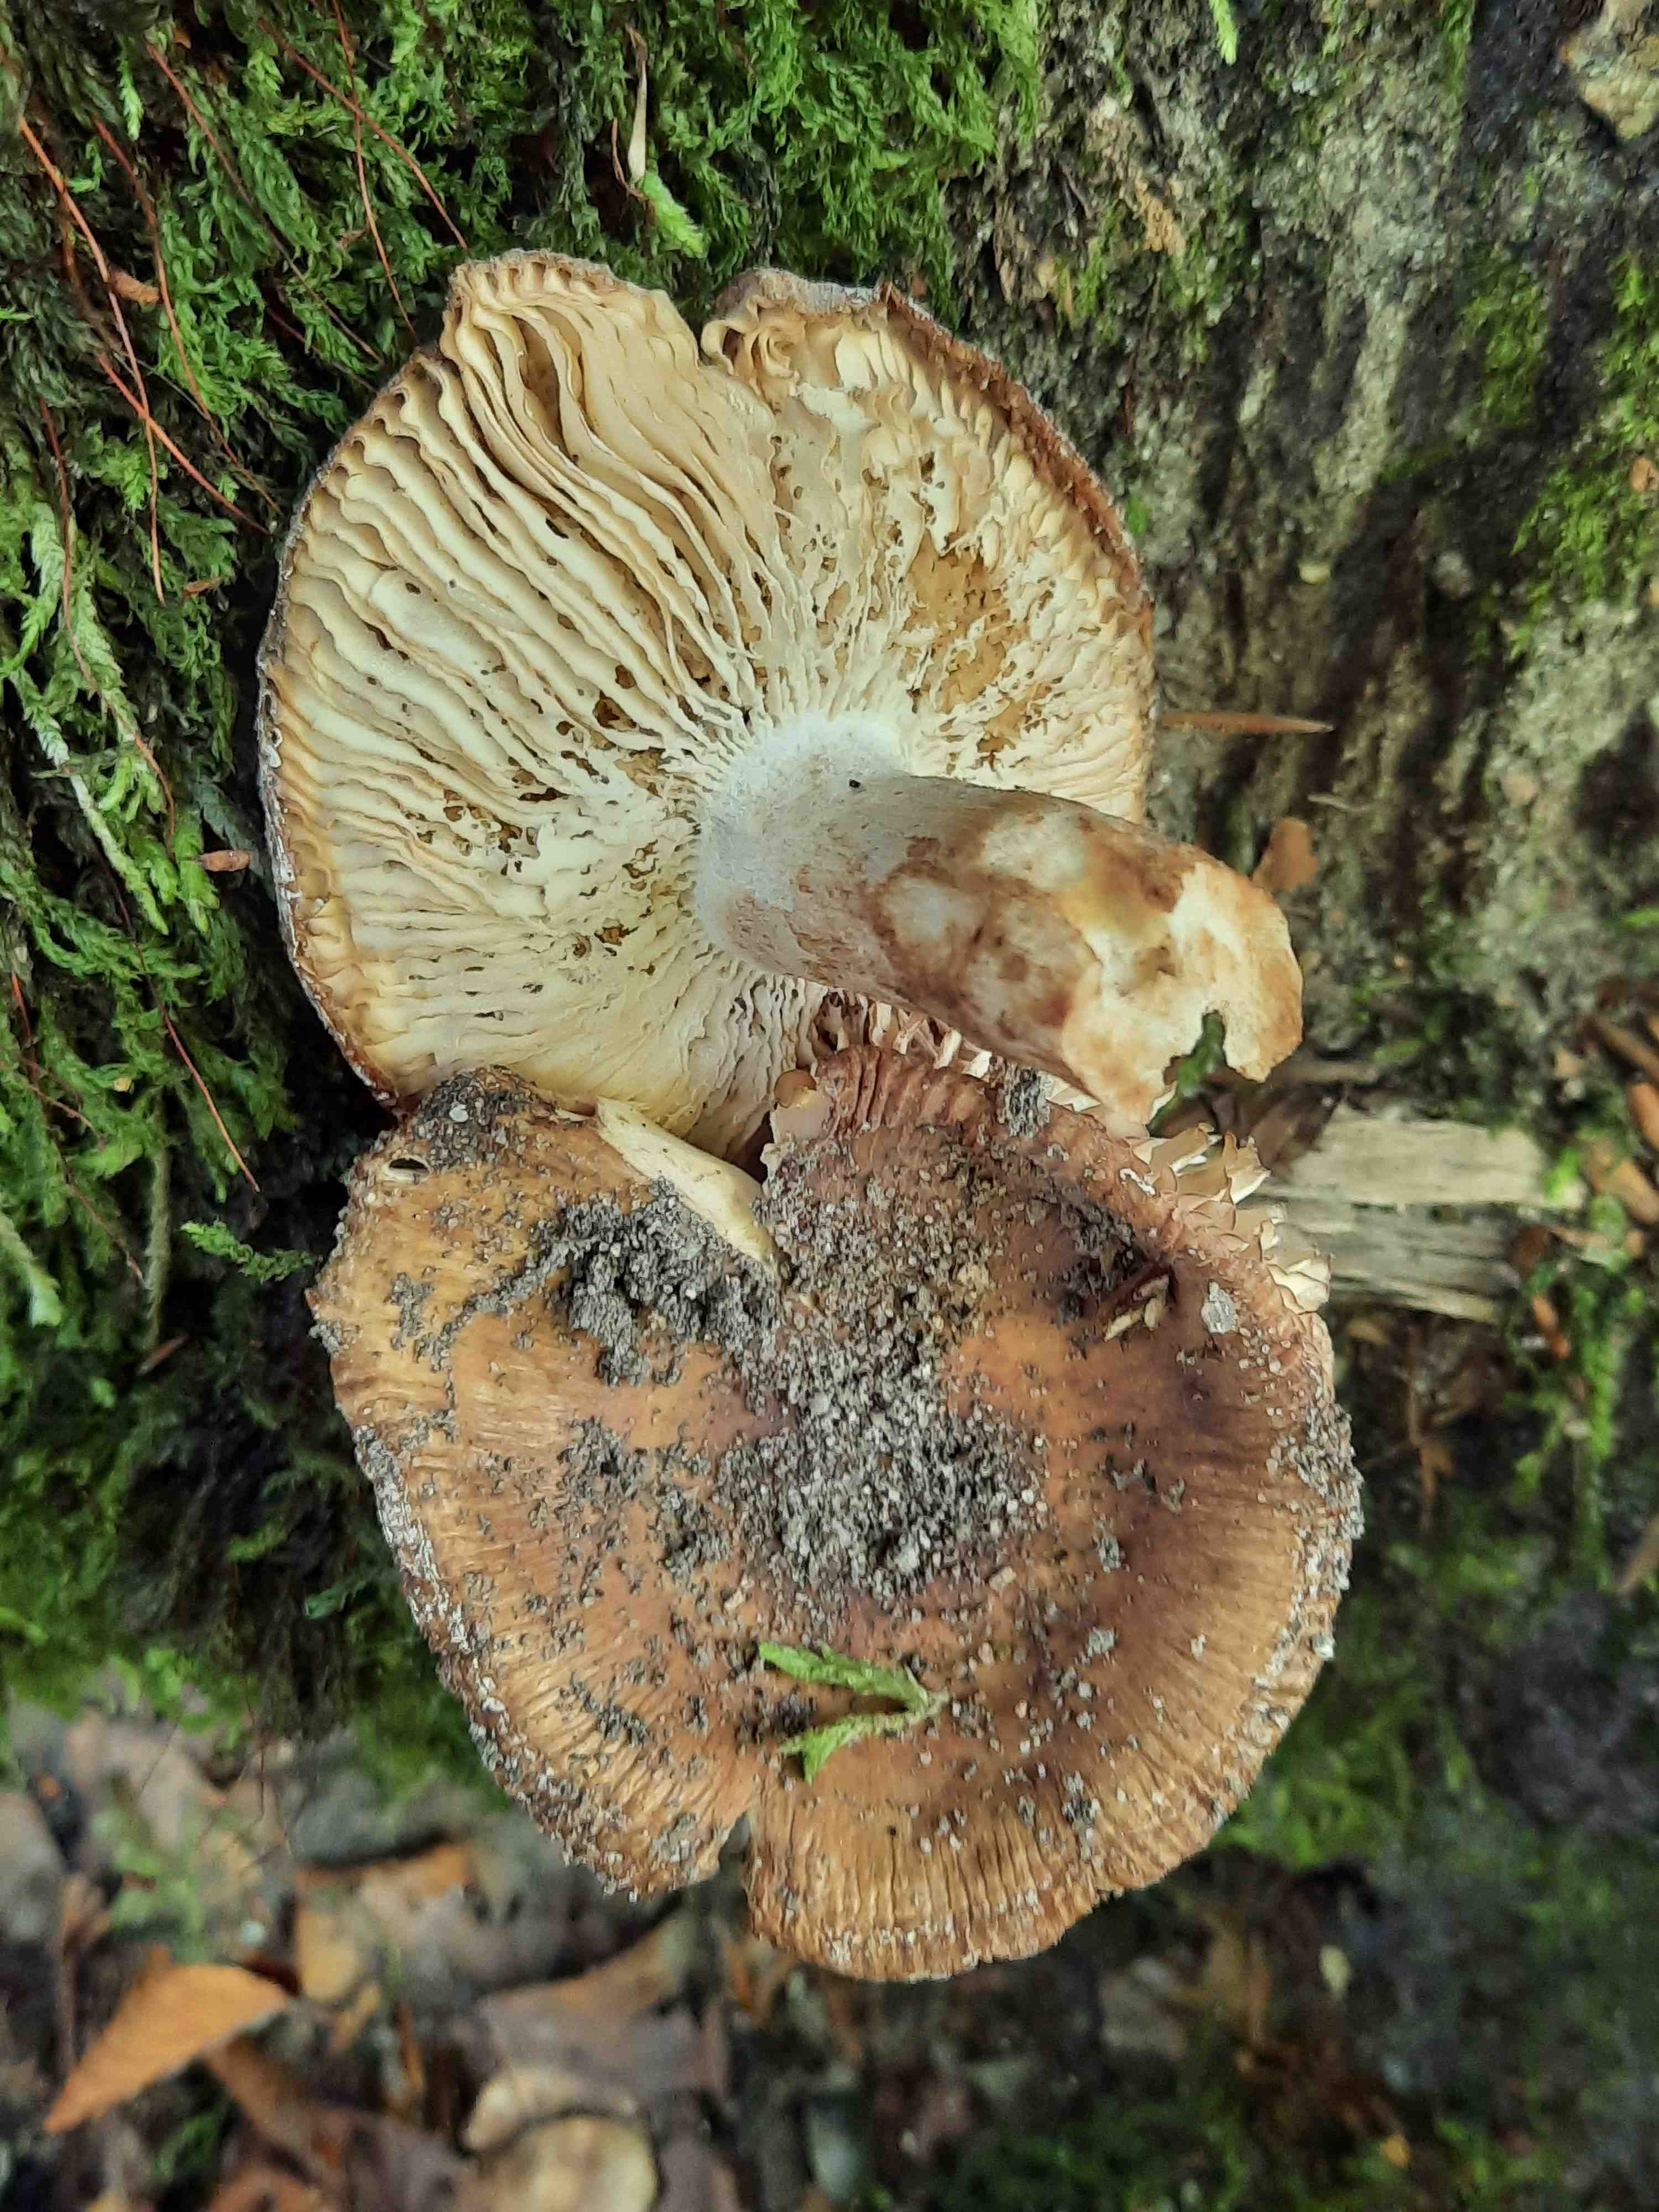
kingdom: Fungi
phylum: Basidiomycota
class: Agaricomycetes
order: Russulales
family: Russulaceae
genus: Russula
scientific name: Russula grata
